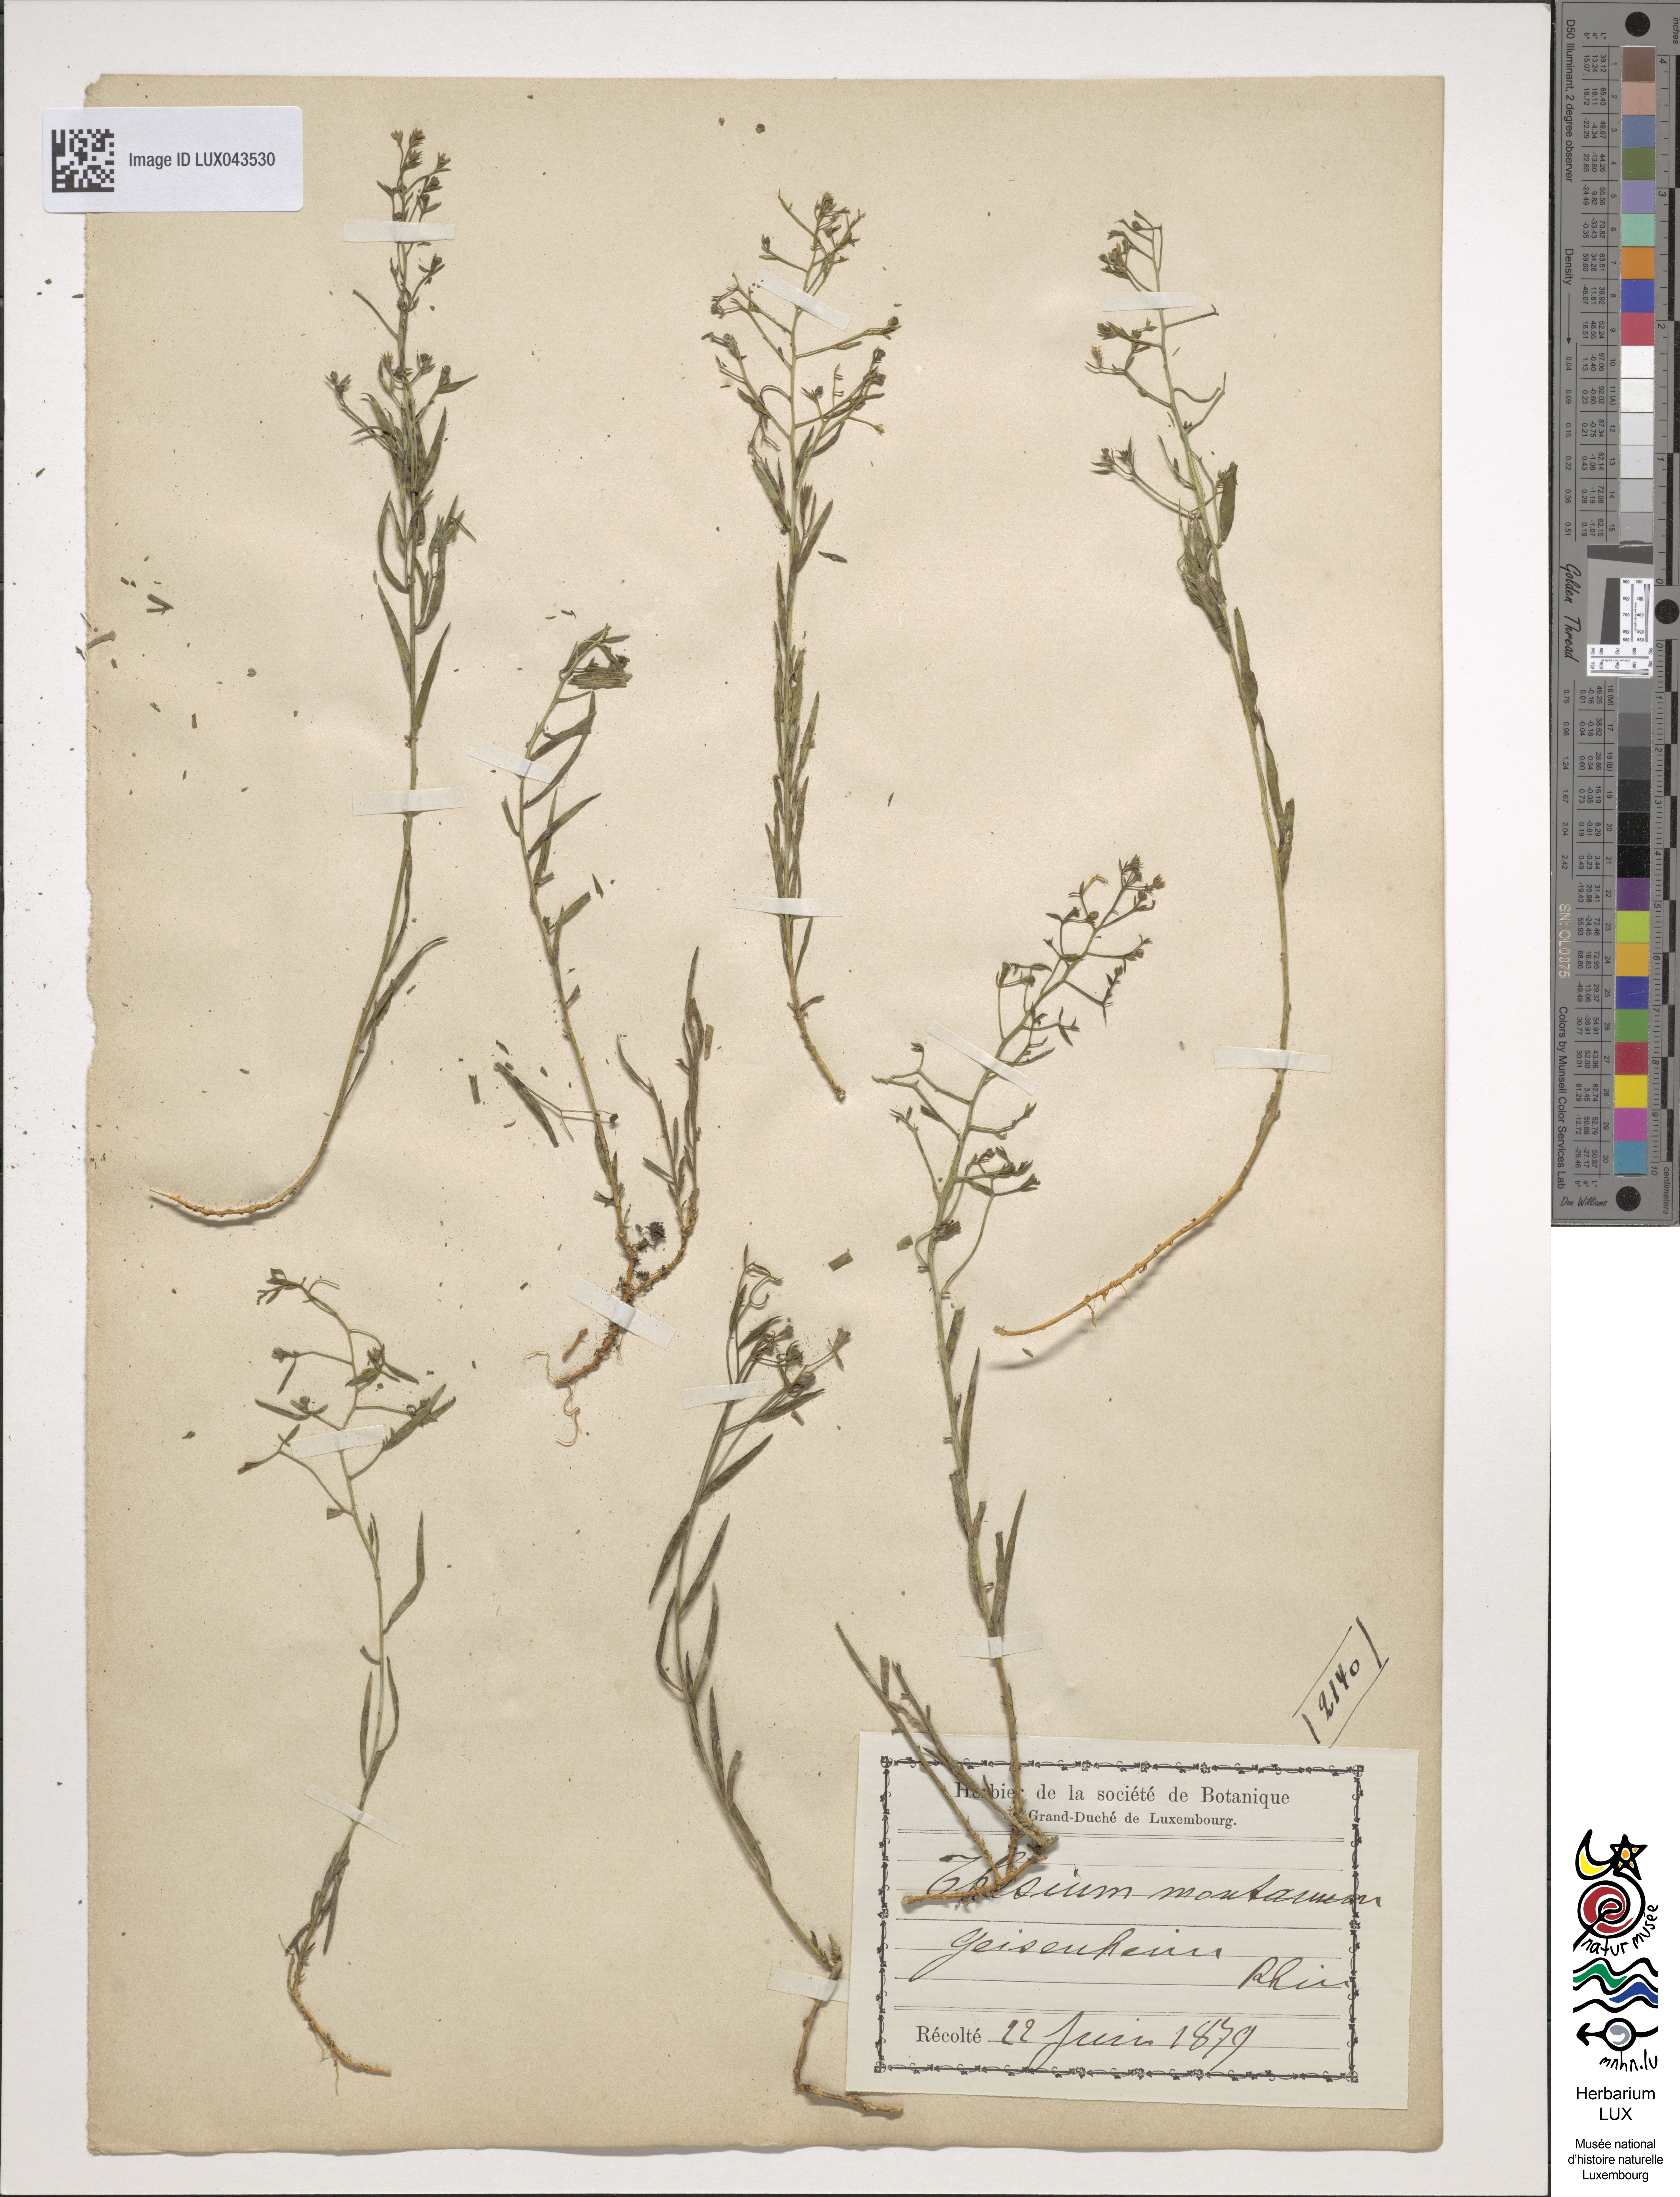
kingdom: Plantae
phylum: Tracheophyta
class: Magnoliopsida
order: Santalales
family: Thesiaceae
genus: Thesium
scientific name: Thesium bavarum
